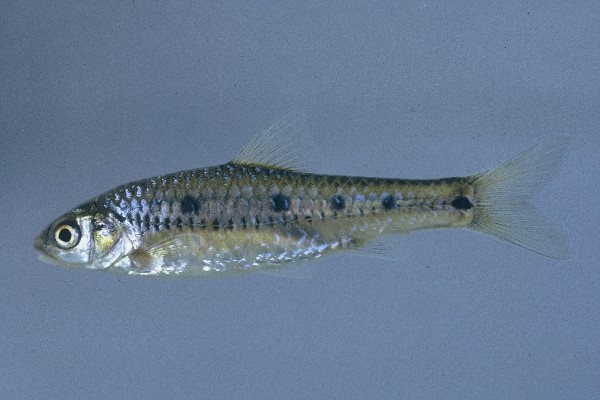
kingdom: Animalia
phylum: Chordata
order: Cypriniformes
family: Cyprinidae
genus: Enteromius
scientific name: Enteromius lineomaculatus
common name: Line-spotted barb
